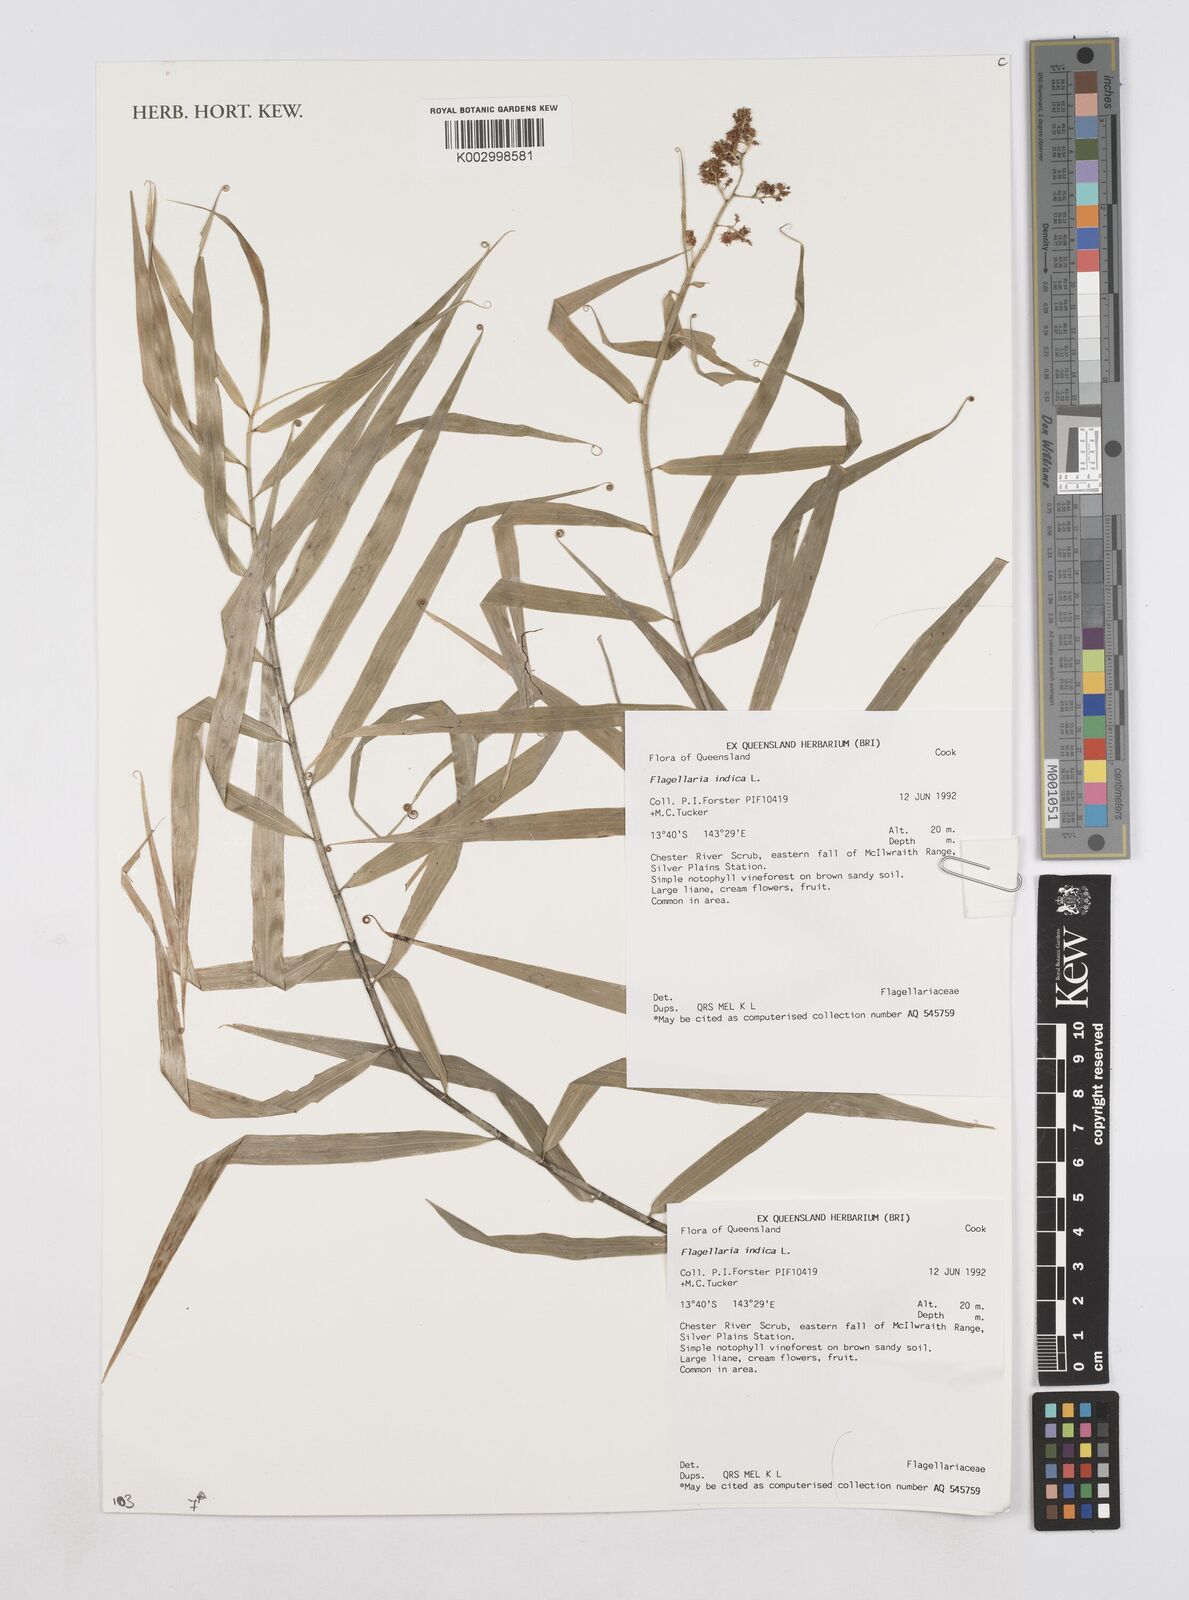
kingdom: Plantae
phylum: Tracheophyta
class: Liliopsida
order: Poales
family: Flagellariaceae
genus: Flagellaria
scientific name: Flagellaria indica
